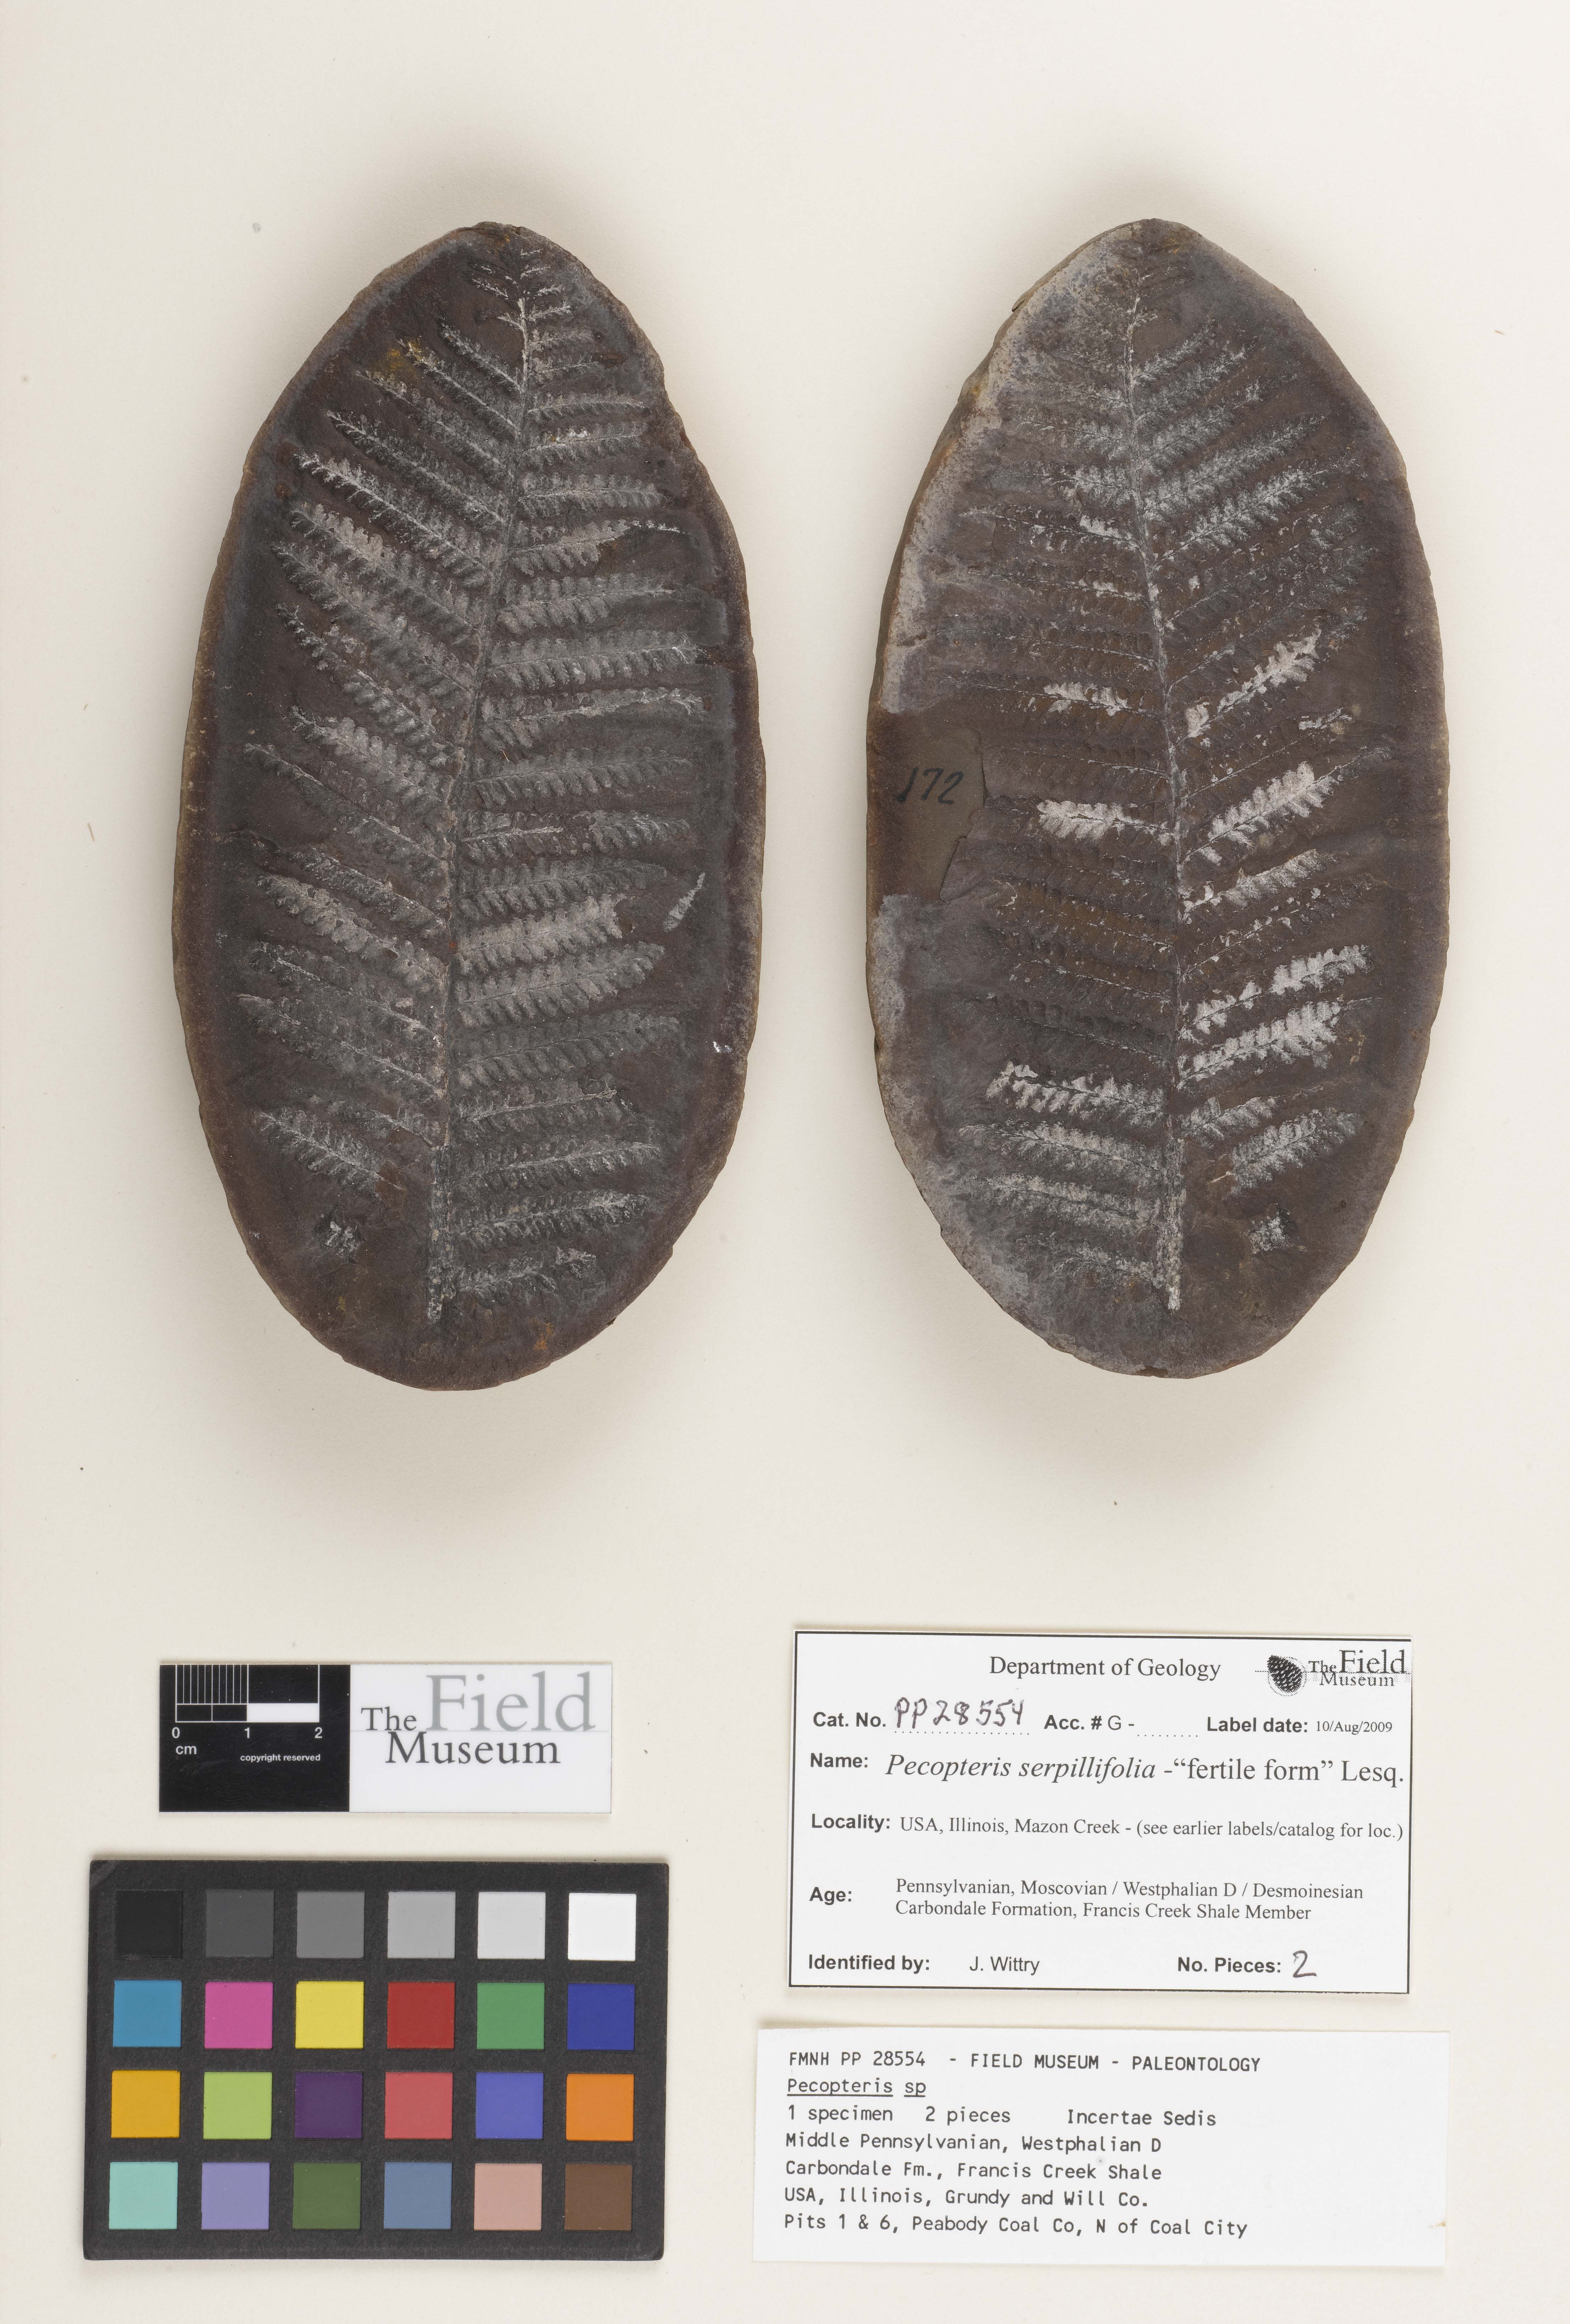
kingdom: Plantae
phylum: Tracheophyta
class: Polypodiopsida
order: Marattiales
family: Asterothecaceae
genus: Pecopteris
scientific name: Pecopteris
